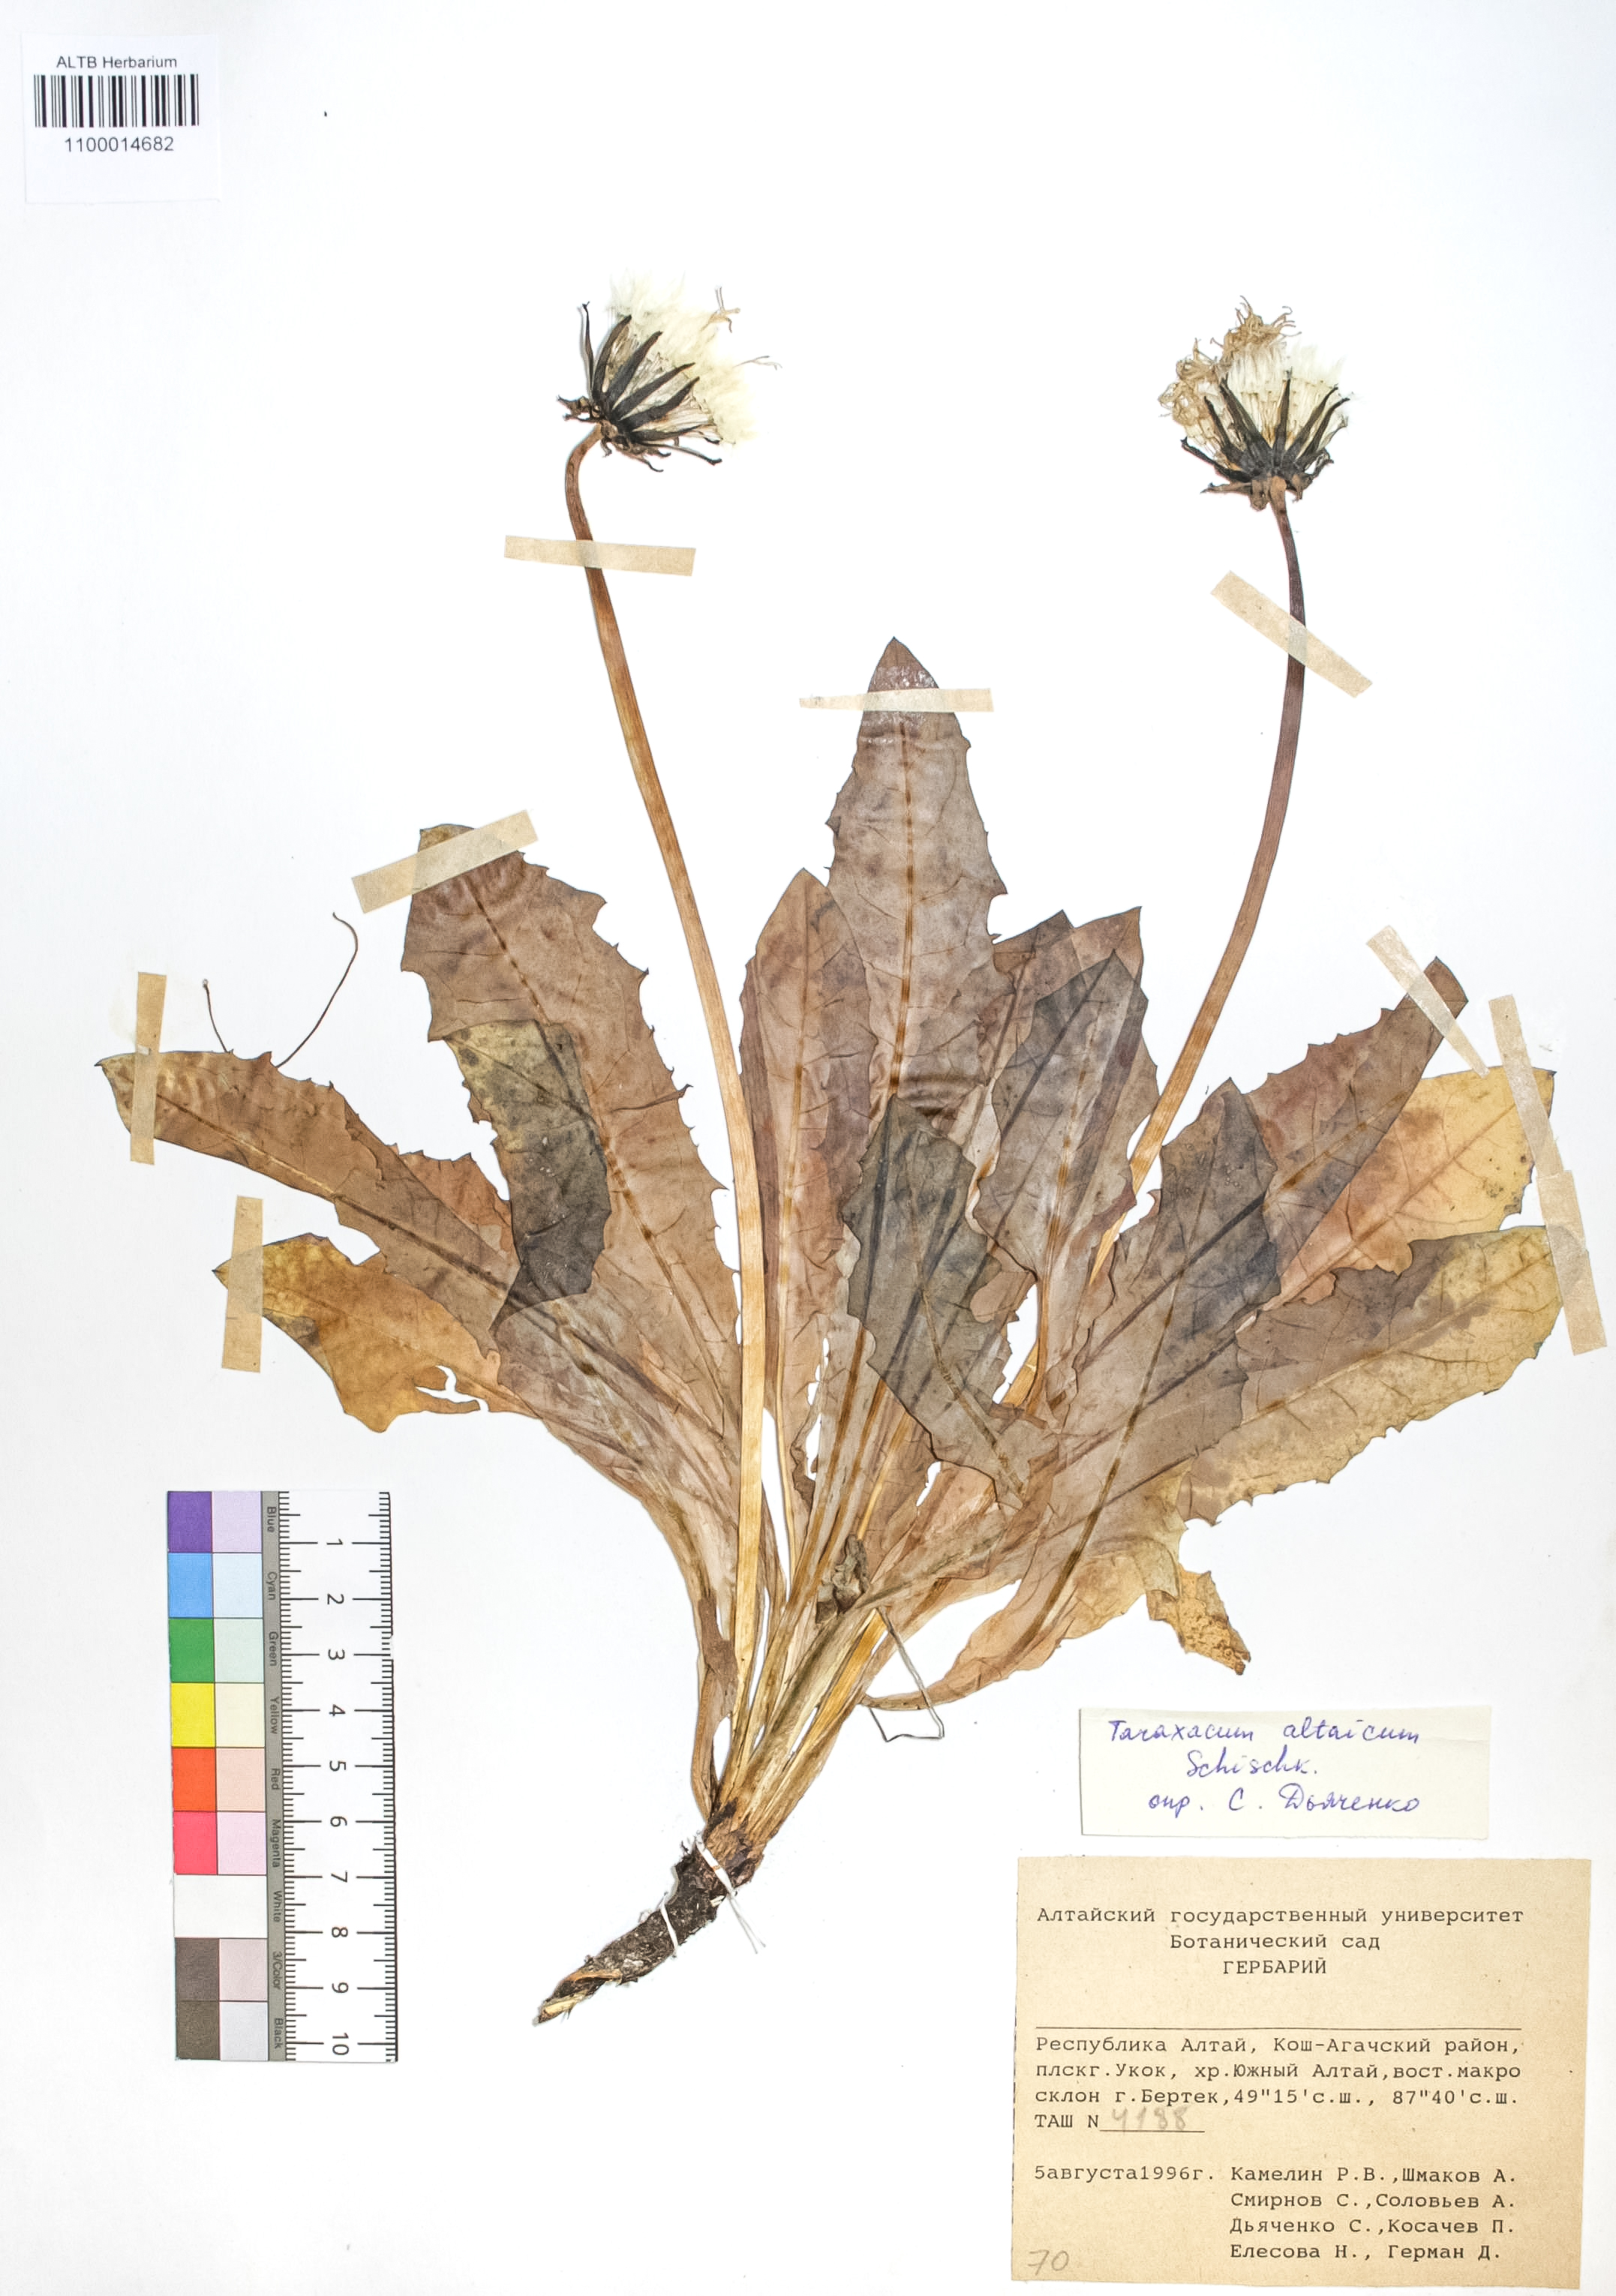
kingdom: Plantae
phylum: Tracheophyta
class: Magnoliopsida
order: Asterales
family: Asteraceae
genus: Taraxacum
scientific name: Taraxacum ceratophorum
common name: Horn-bearing dandelion
